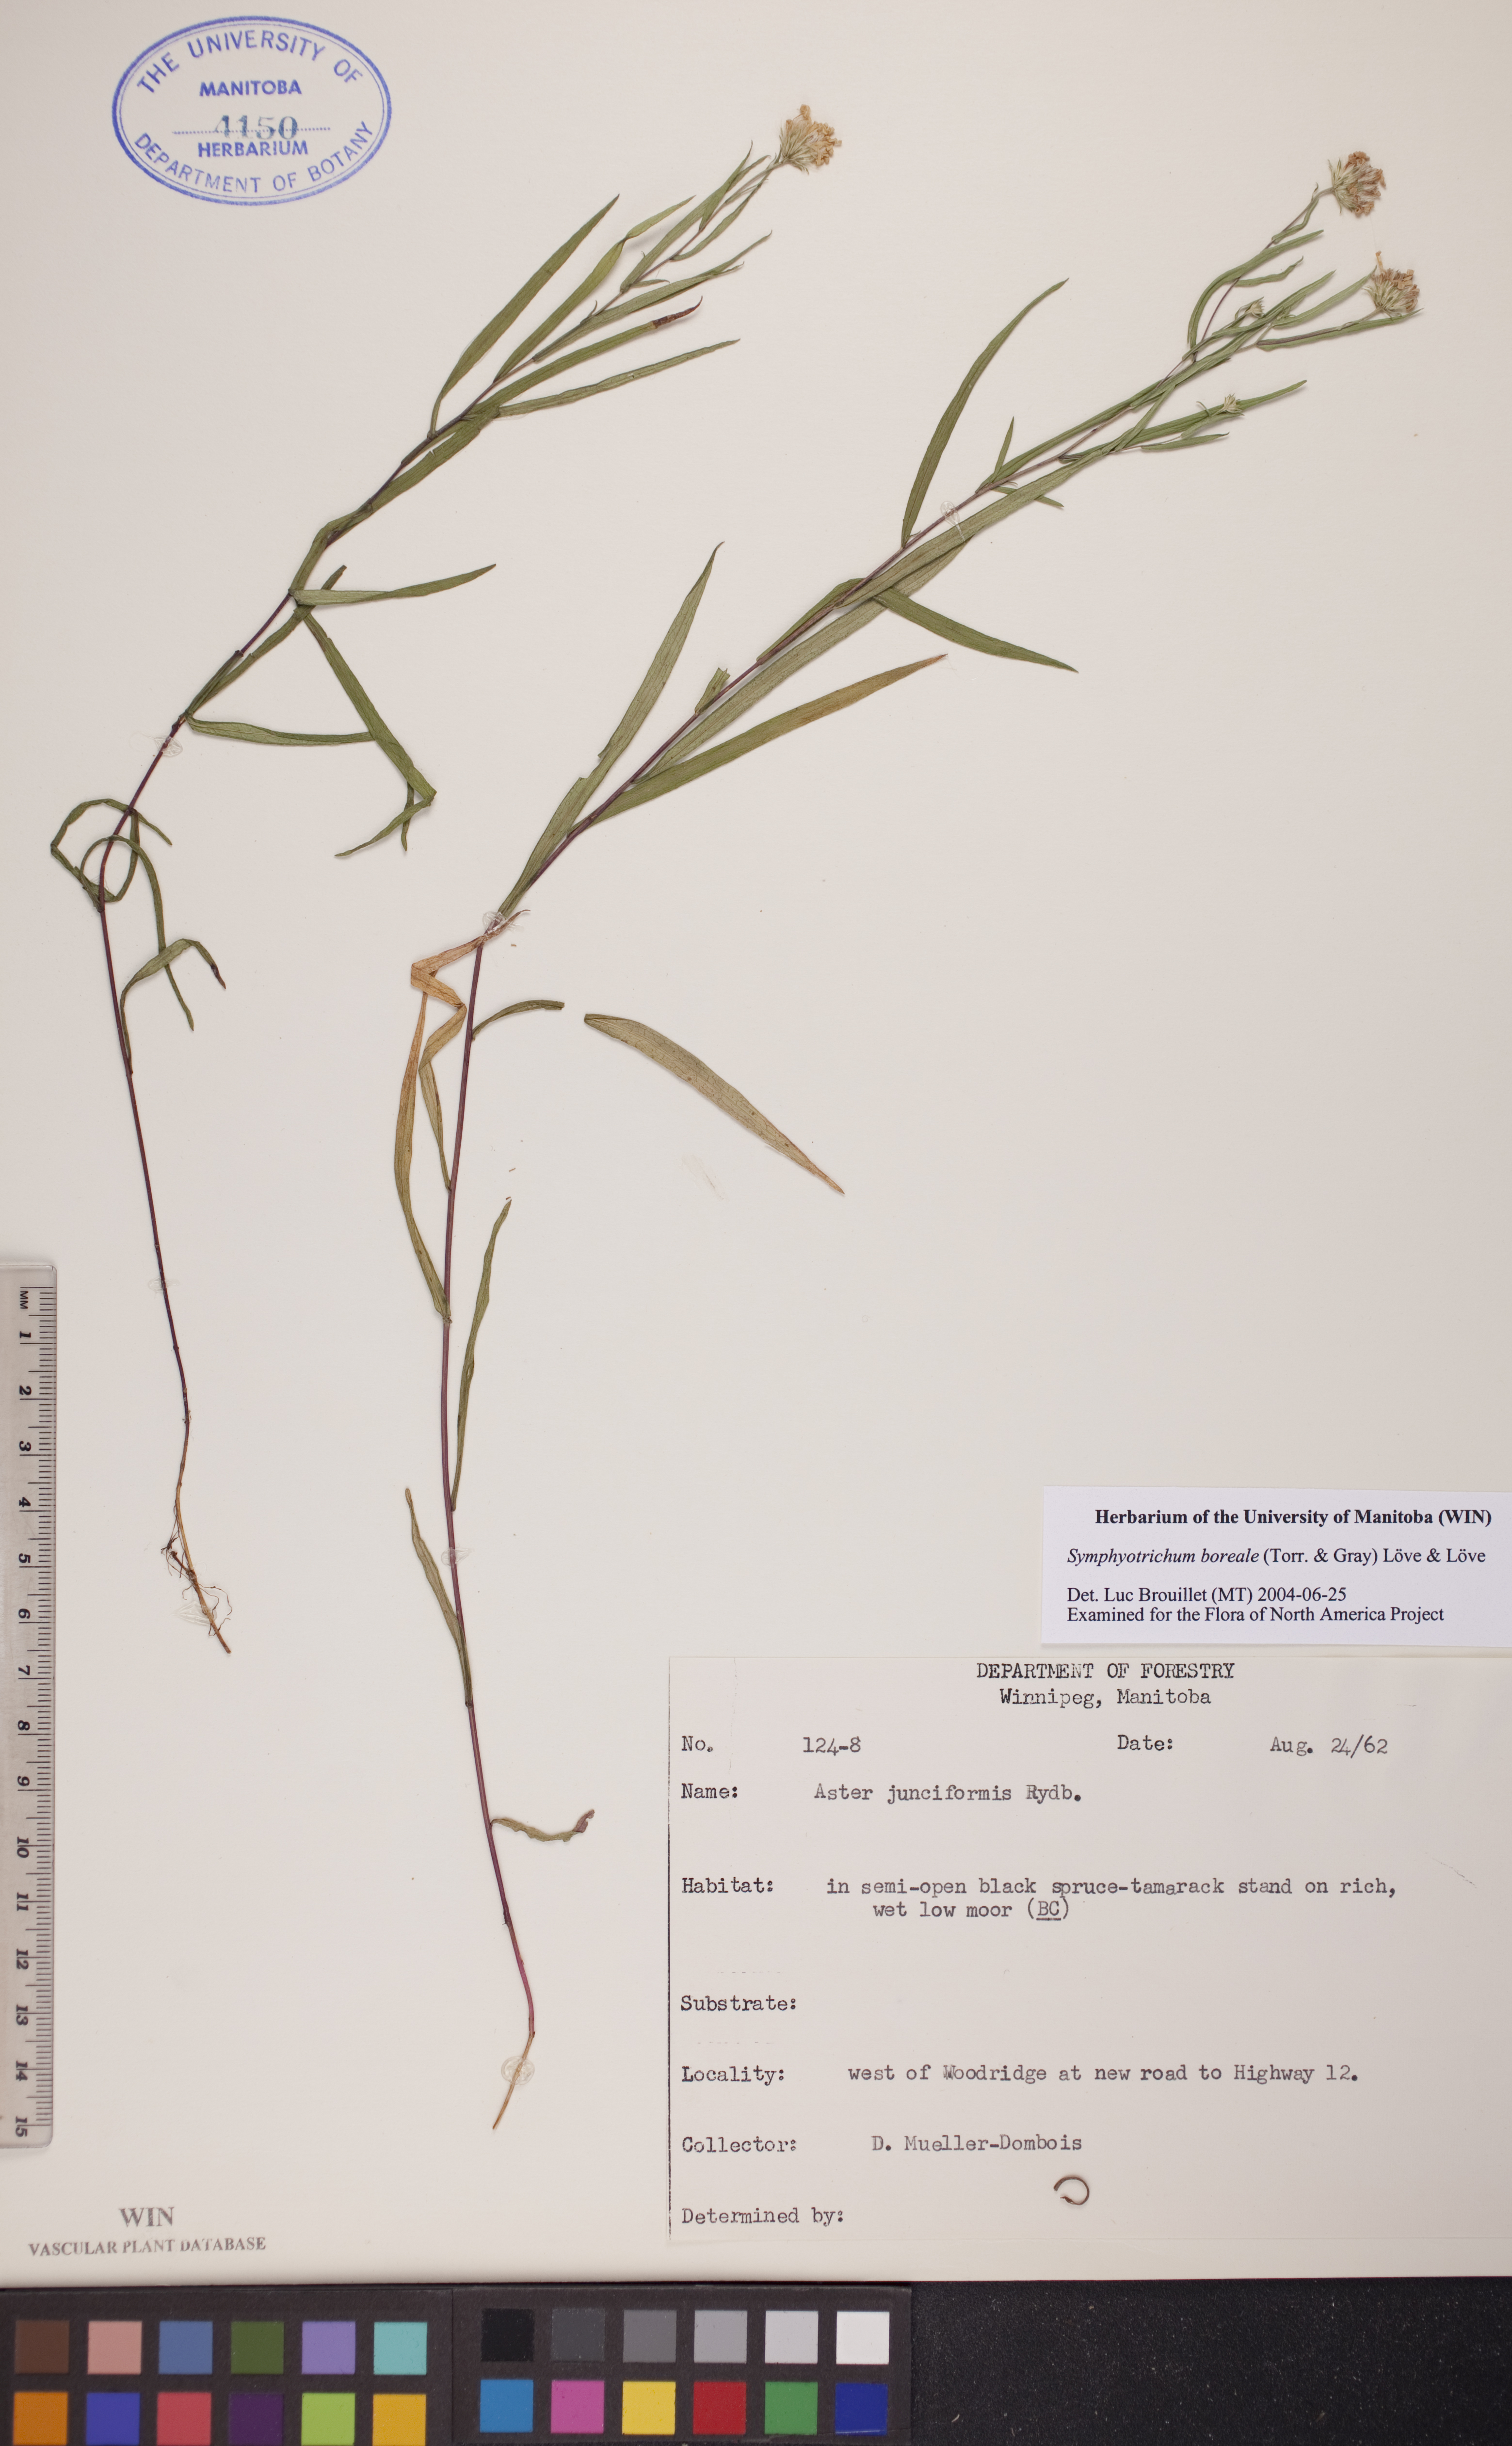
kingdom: Plantae
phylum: Tracheophyta
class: Magnoliopsida
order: Asterales
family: Asteraceae
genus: Symphyotrichum
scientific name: Symphyotrichum boreale
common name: Northern bog aster
